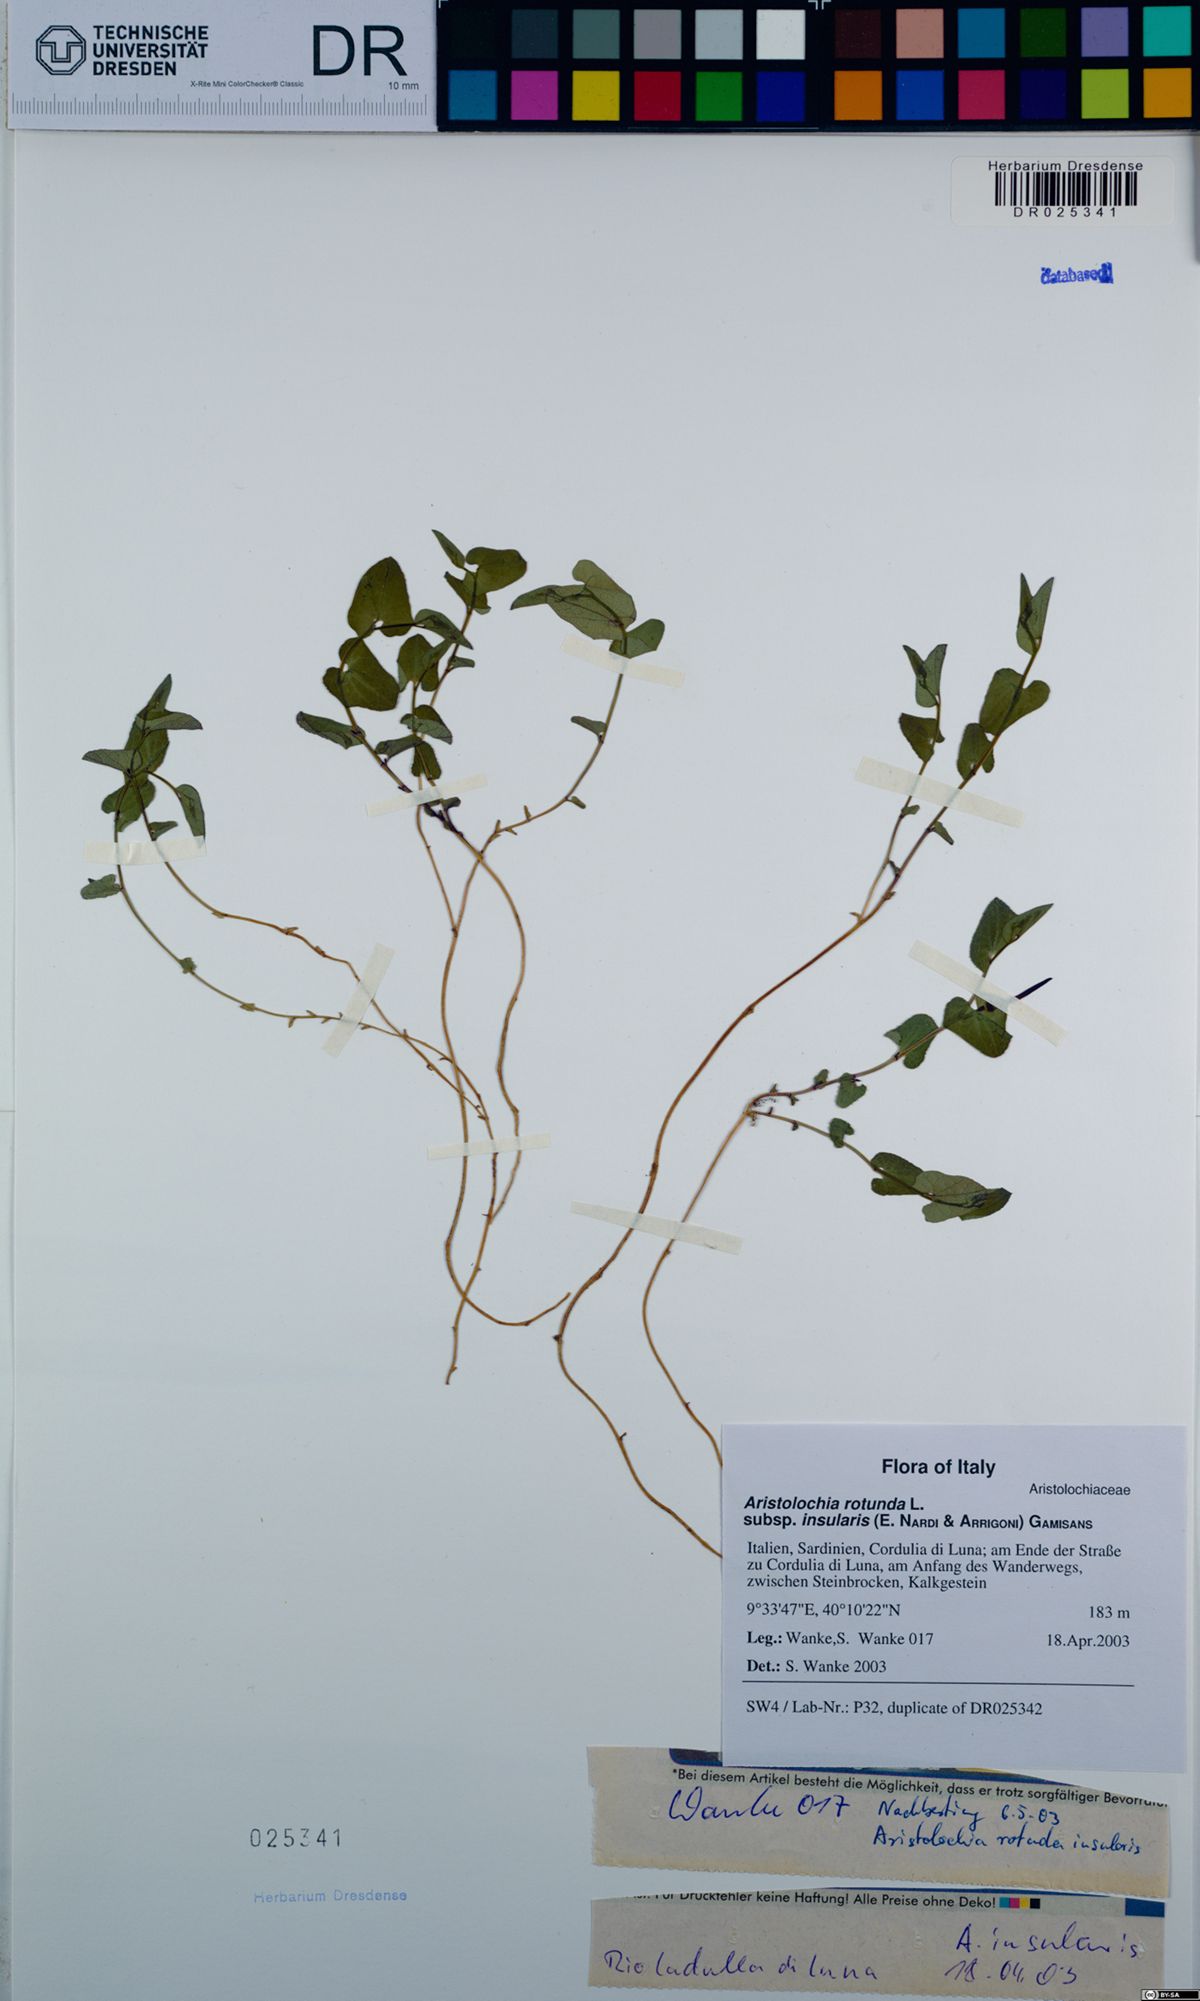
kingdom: Plantae
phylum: Tracheophyta
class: Magnoliopsida
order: Piperales
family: Aristolochiaceae
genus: Aristolochia
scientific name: Aristolochia rotunda
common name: Smearwort
